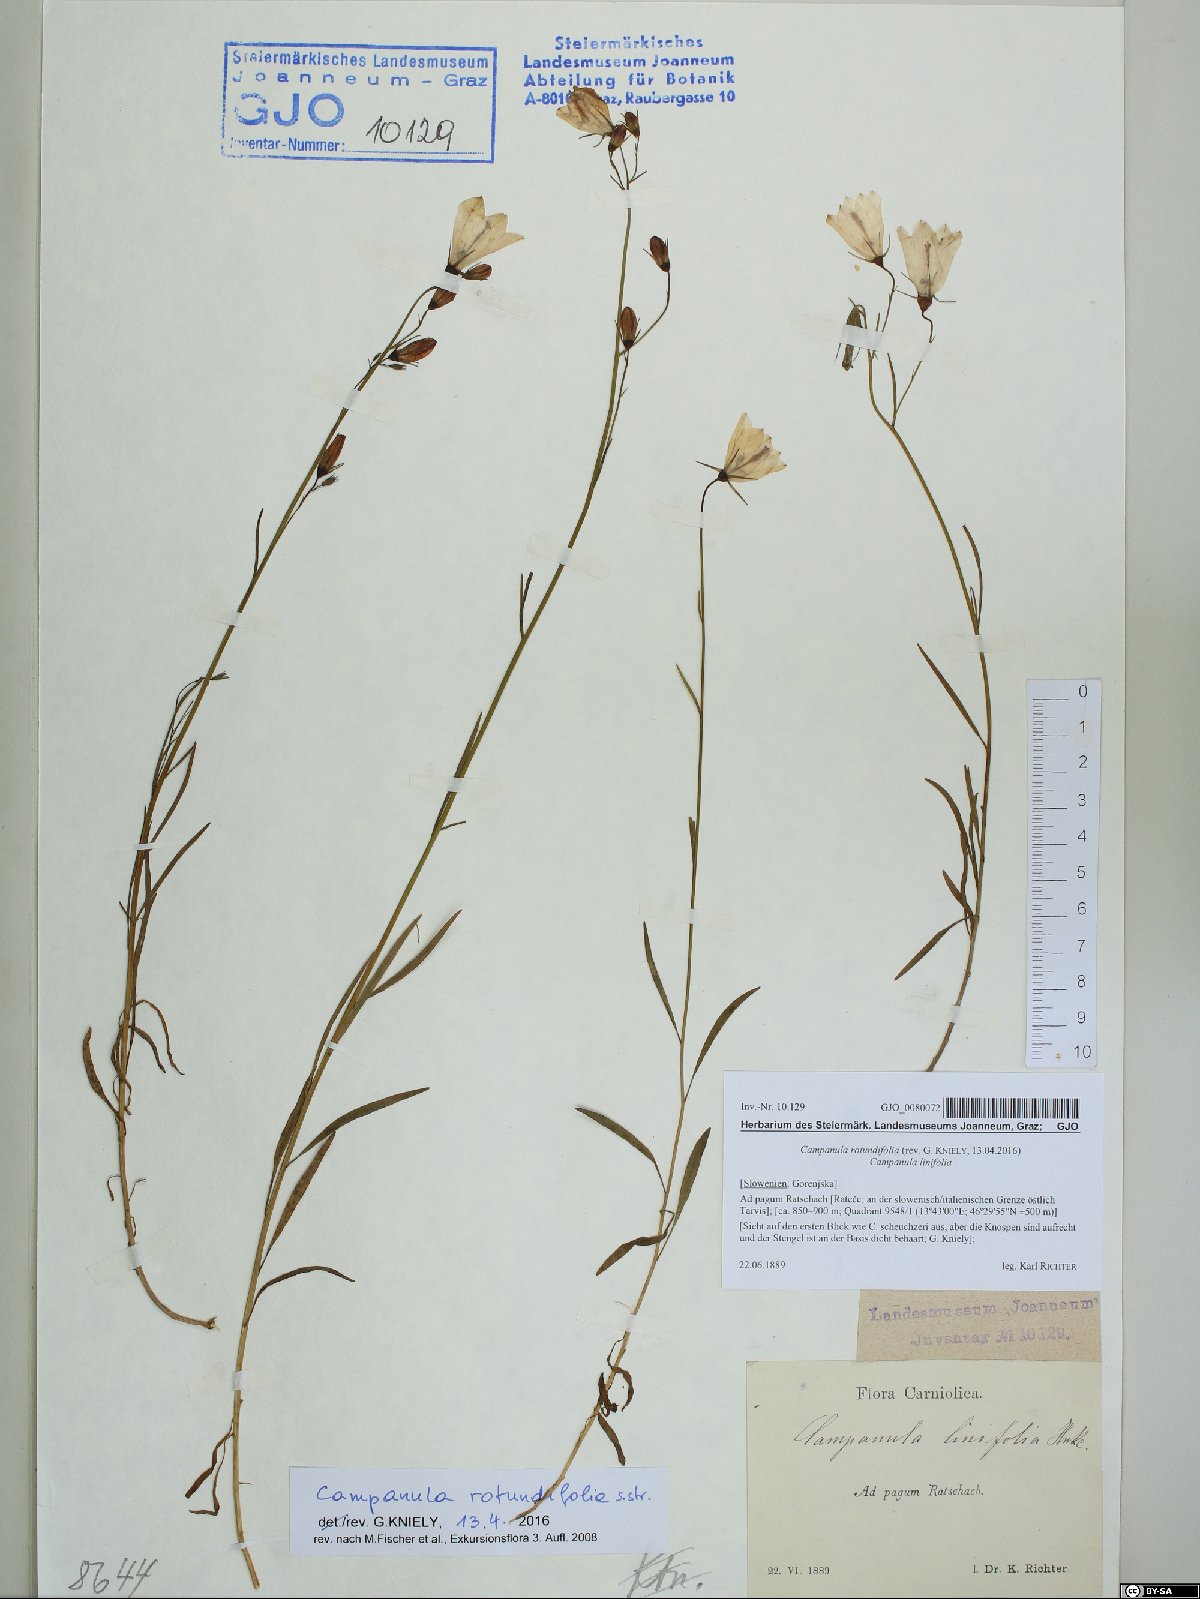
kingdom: Plantae
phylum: Tracheophyta
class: Magnoliopsida
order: Asterales
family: Campanulaceae
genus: Campanula
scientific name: Campanula rotundifolia
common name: Harebell
